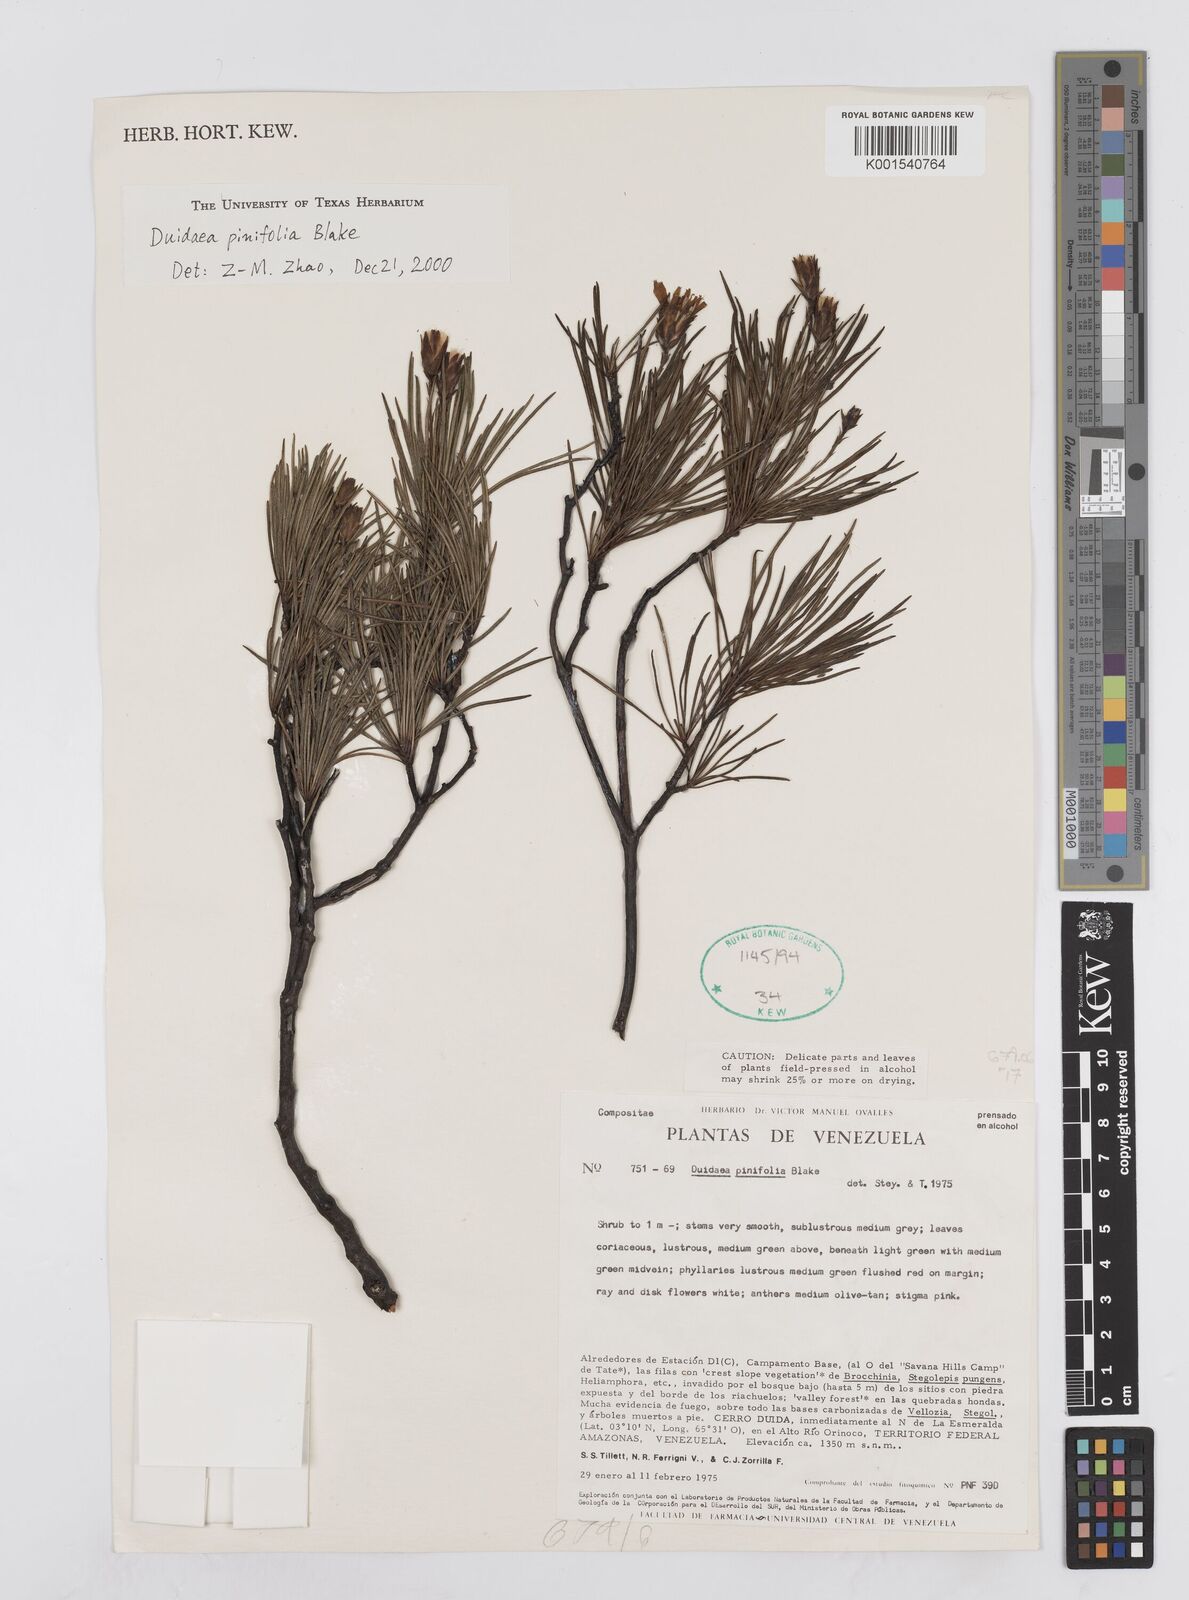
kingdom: Plantae
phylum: Tracheophyta
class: Magnoliopsida
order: Asterales
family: Asteraceae
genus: Duidaea
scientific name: Duidaea tatei
